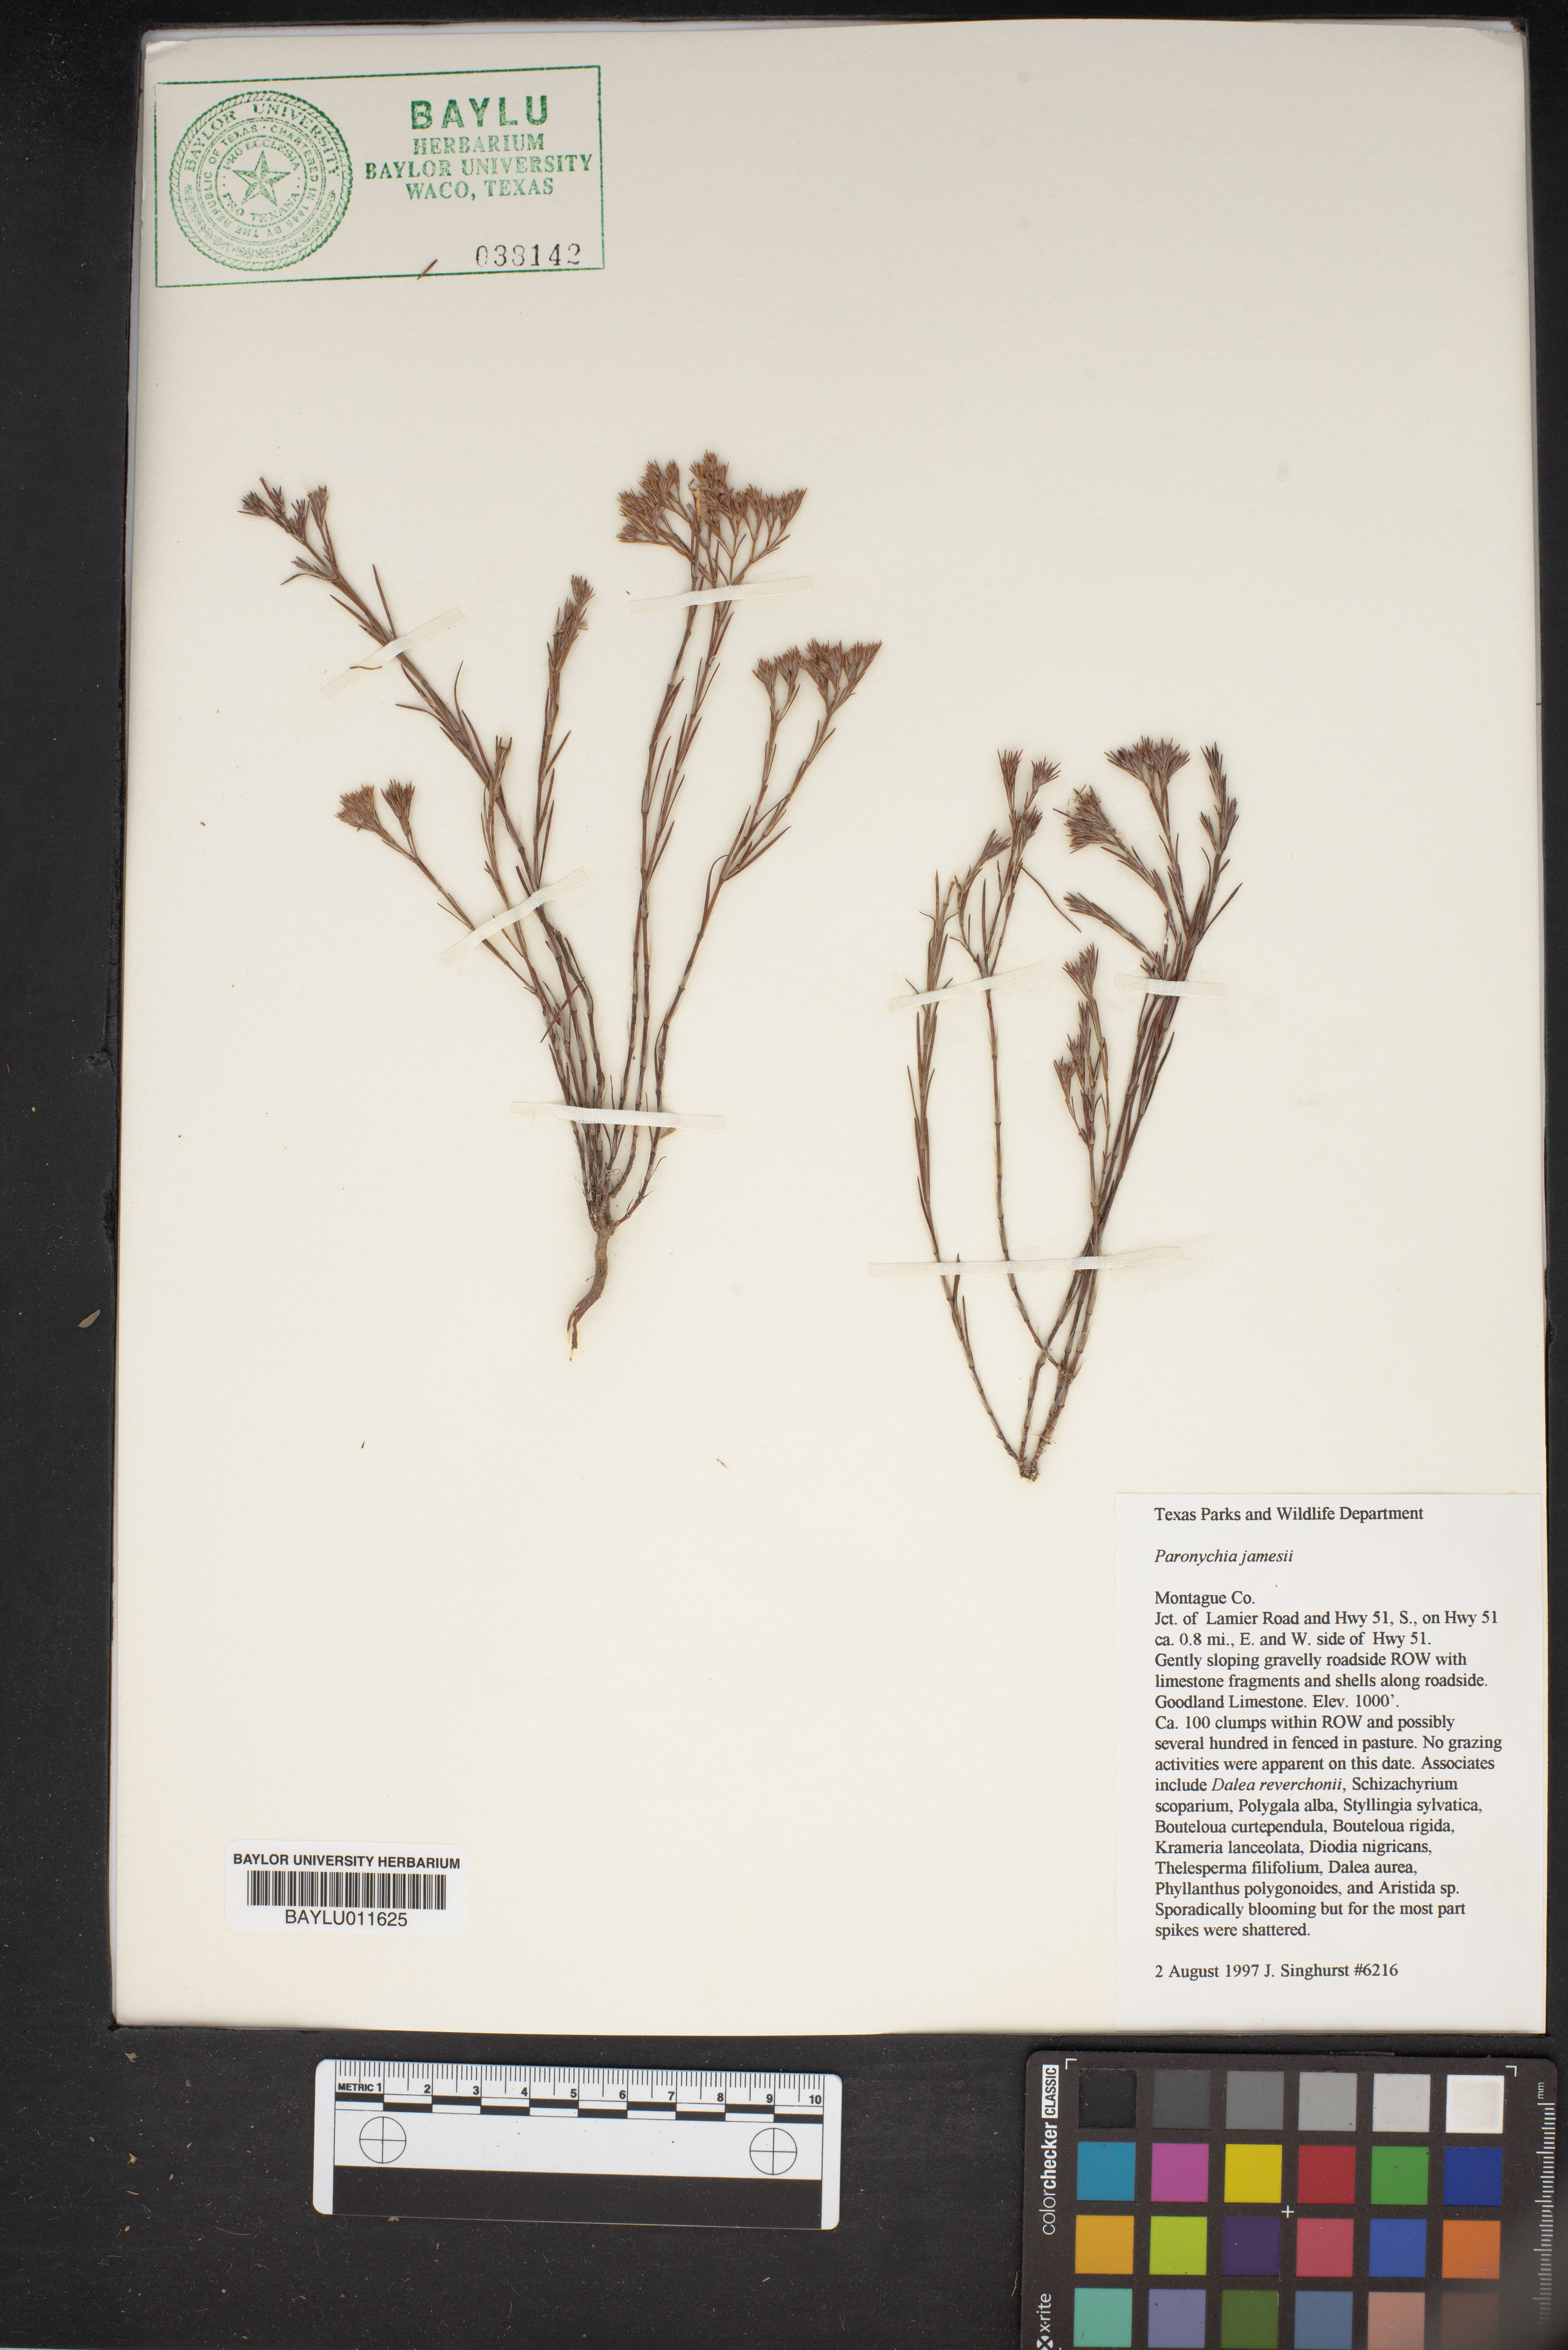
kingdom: Plantae
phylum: Tracheophyta
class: Magnoliopsida
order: Caryophyllales
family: Caryophyllaceae
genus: Paronychia
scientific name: Paronychia jamesii
